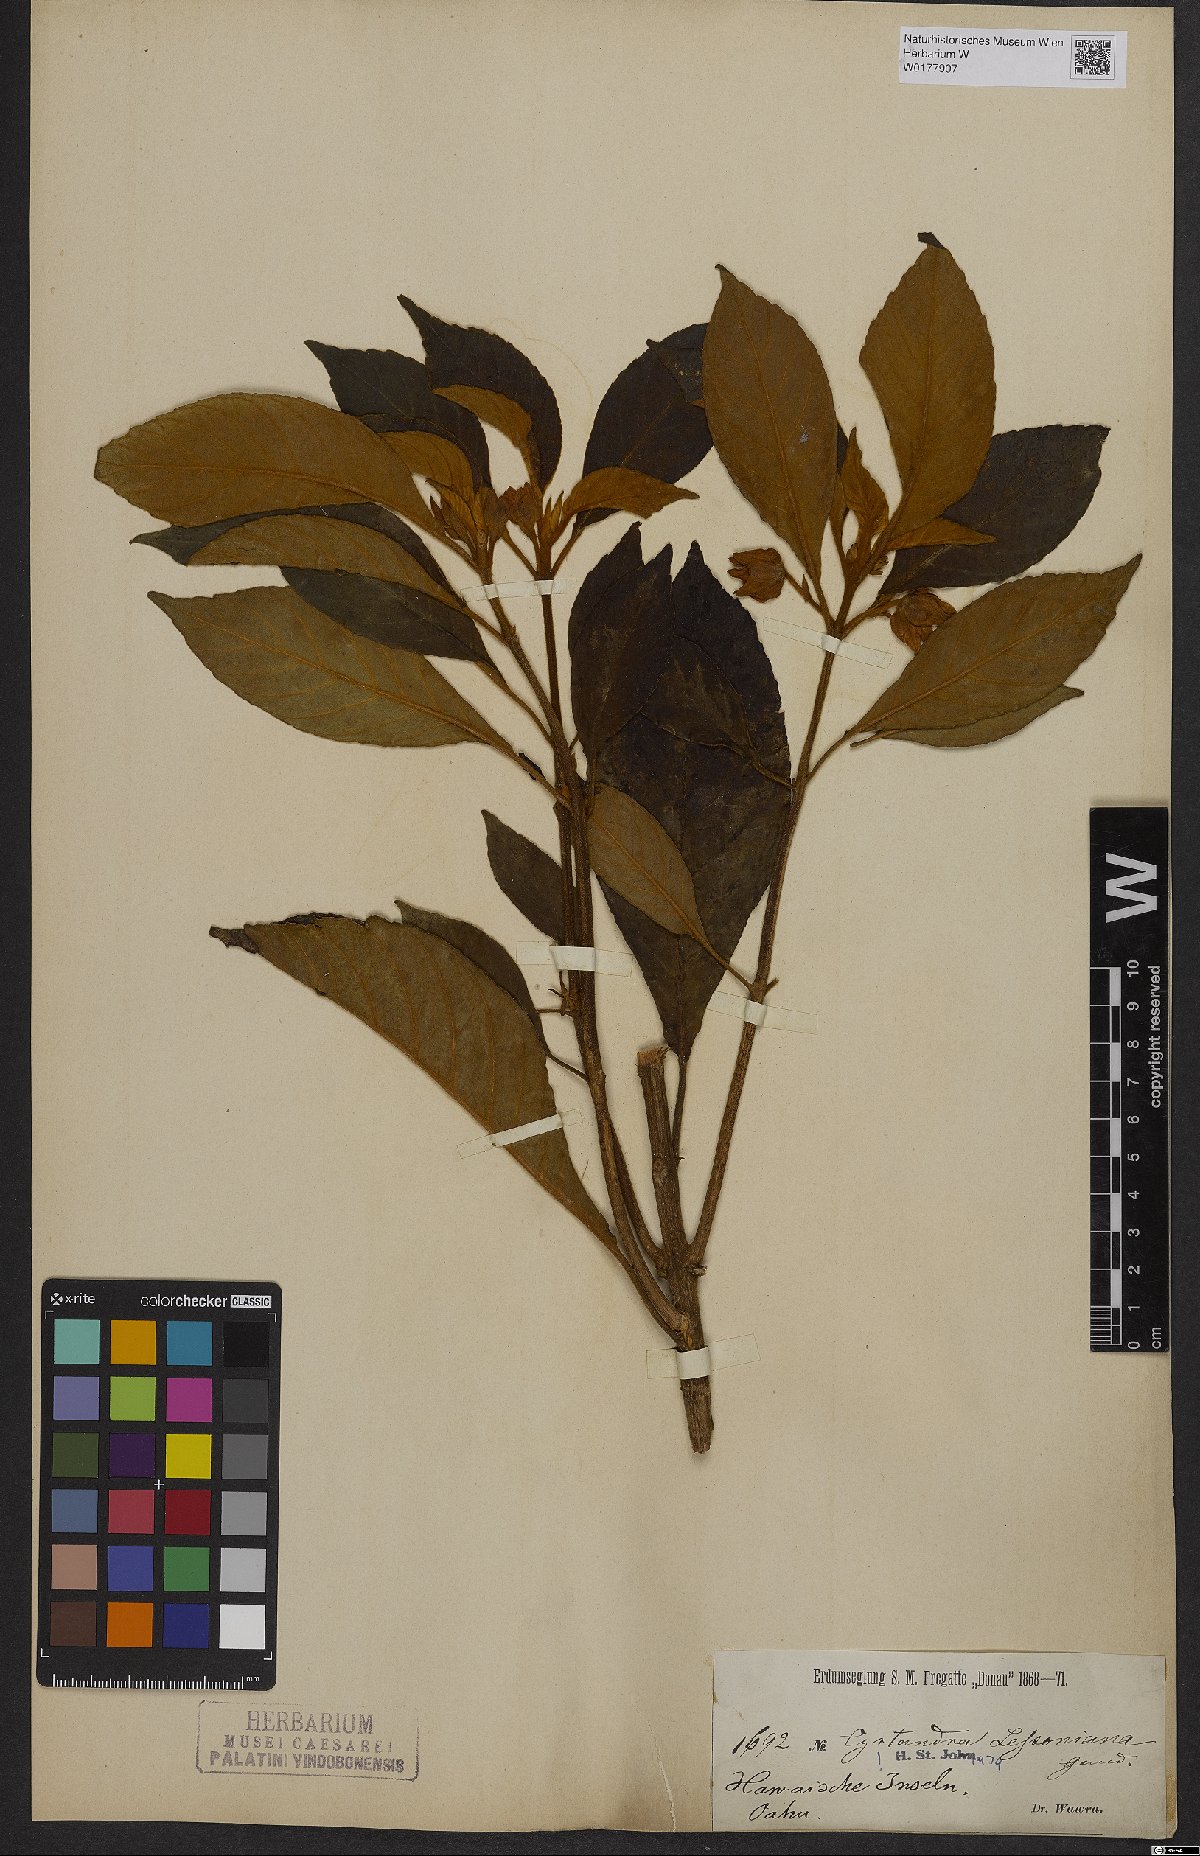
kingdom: Plantae
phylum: Tracheophyta
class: Magnoliopsida
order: Lamiales
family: Gesneriaceae
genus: Cyrtandra
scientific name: Cyrtandra lessoniana
